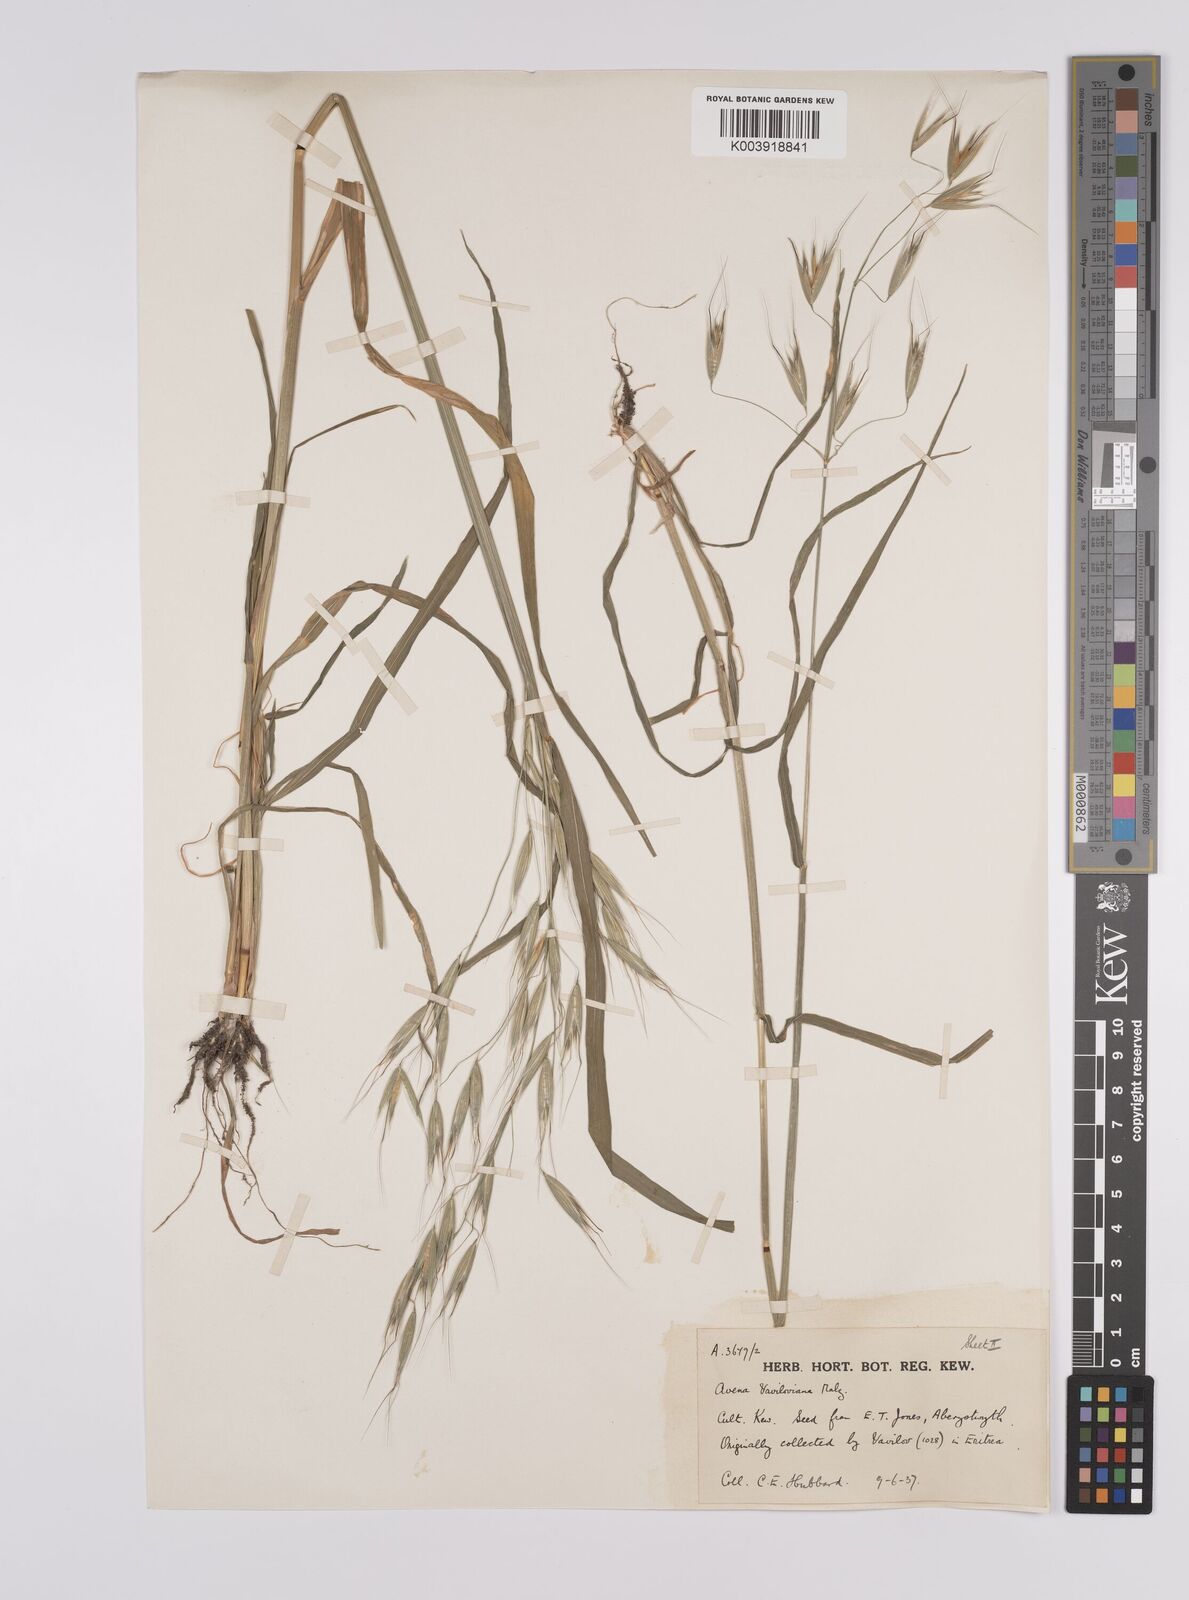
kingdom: Plantae
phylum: Tracheophyta
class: Liliopsida
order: Poales
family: Poaceae
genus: Avena
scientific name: Avena vaviloviana
